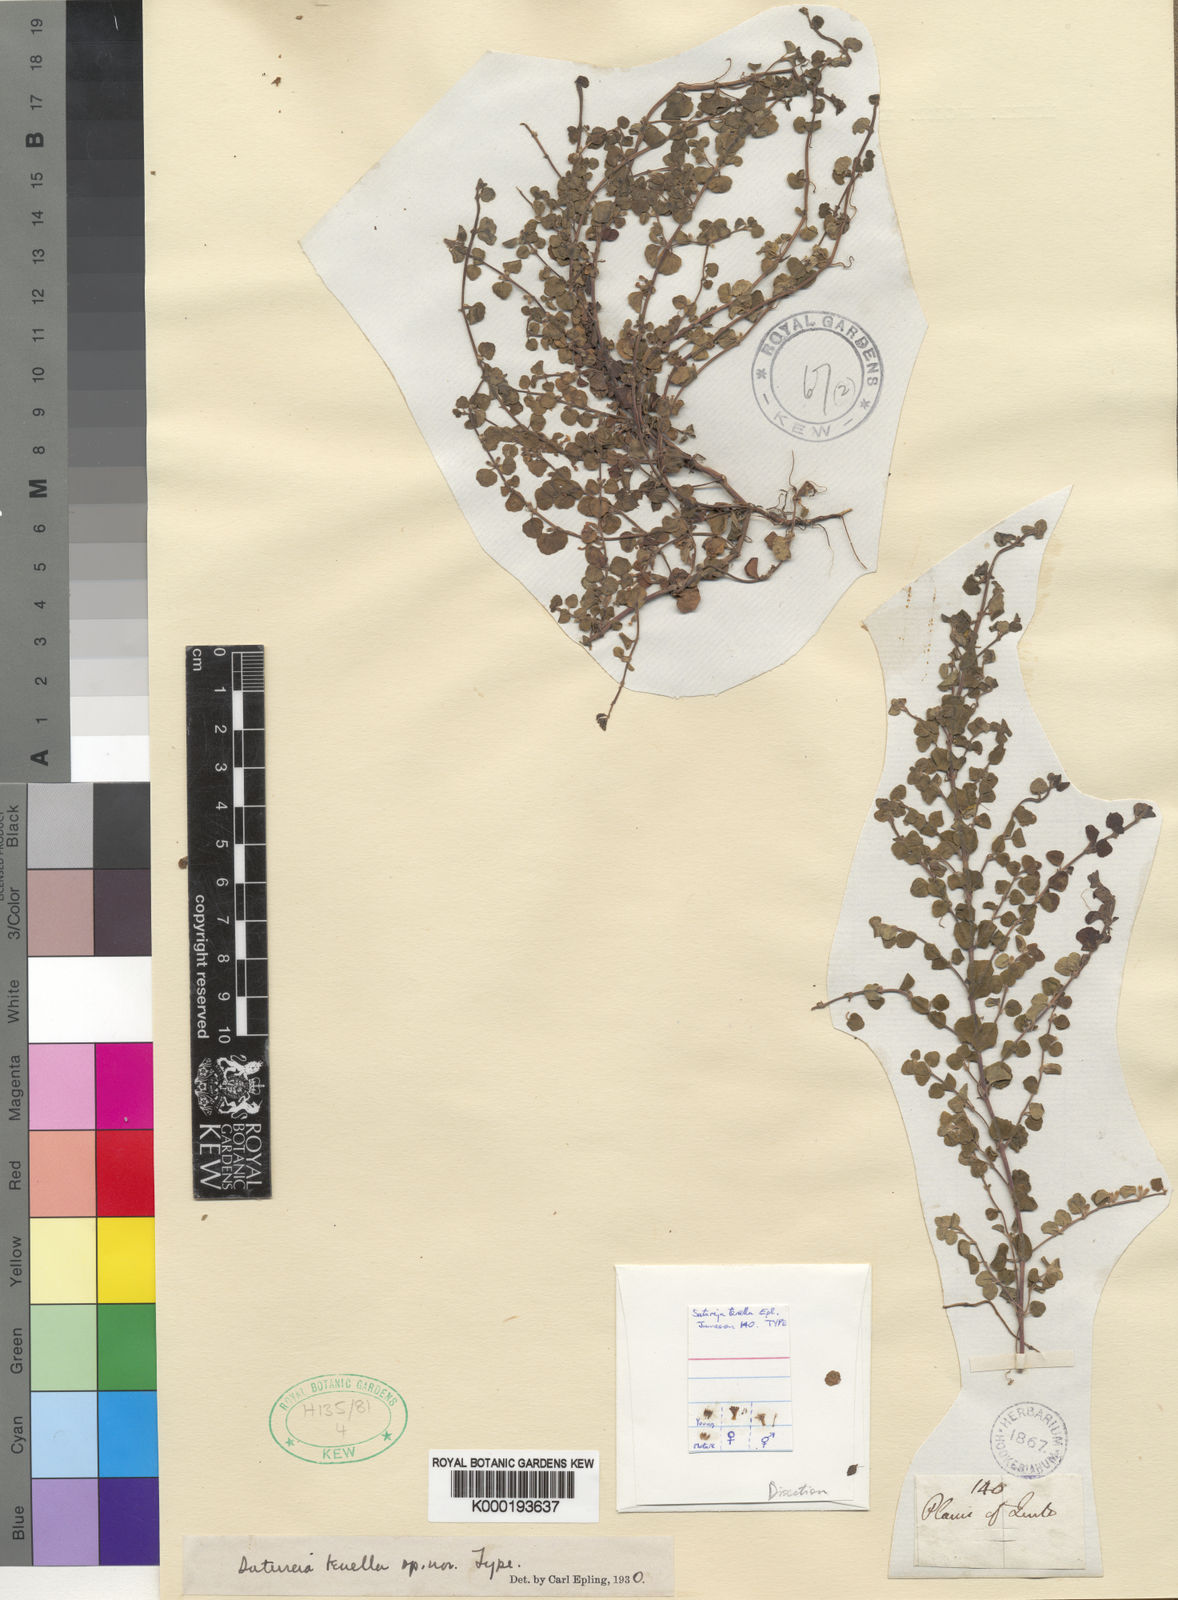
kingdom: Plantae
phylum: Tracheophyta
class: Magnoliopsida
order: Lamiales
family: Lamiaceae
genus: Clinopodium
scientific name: Clinopodium tenellum
